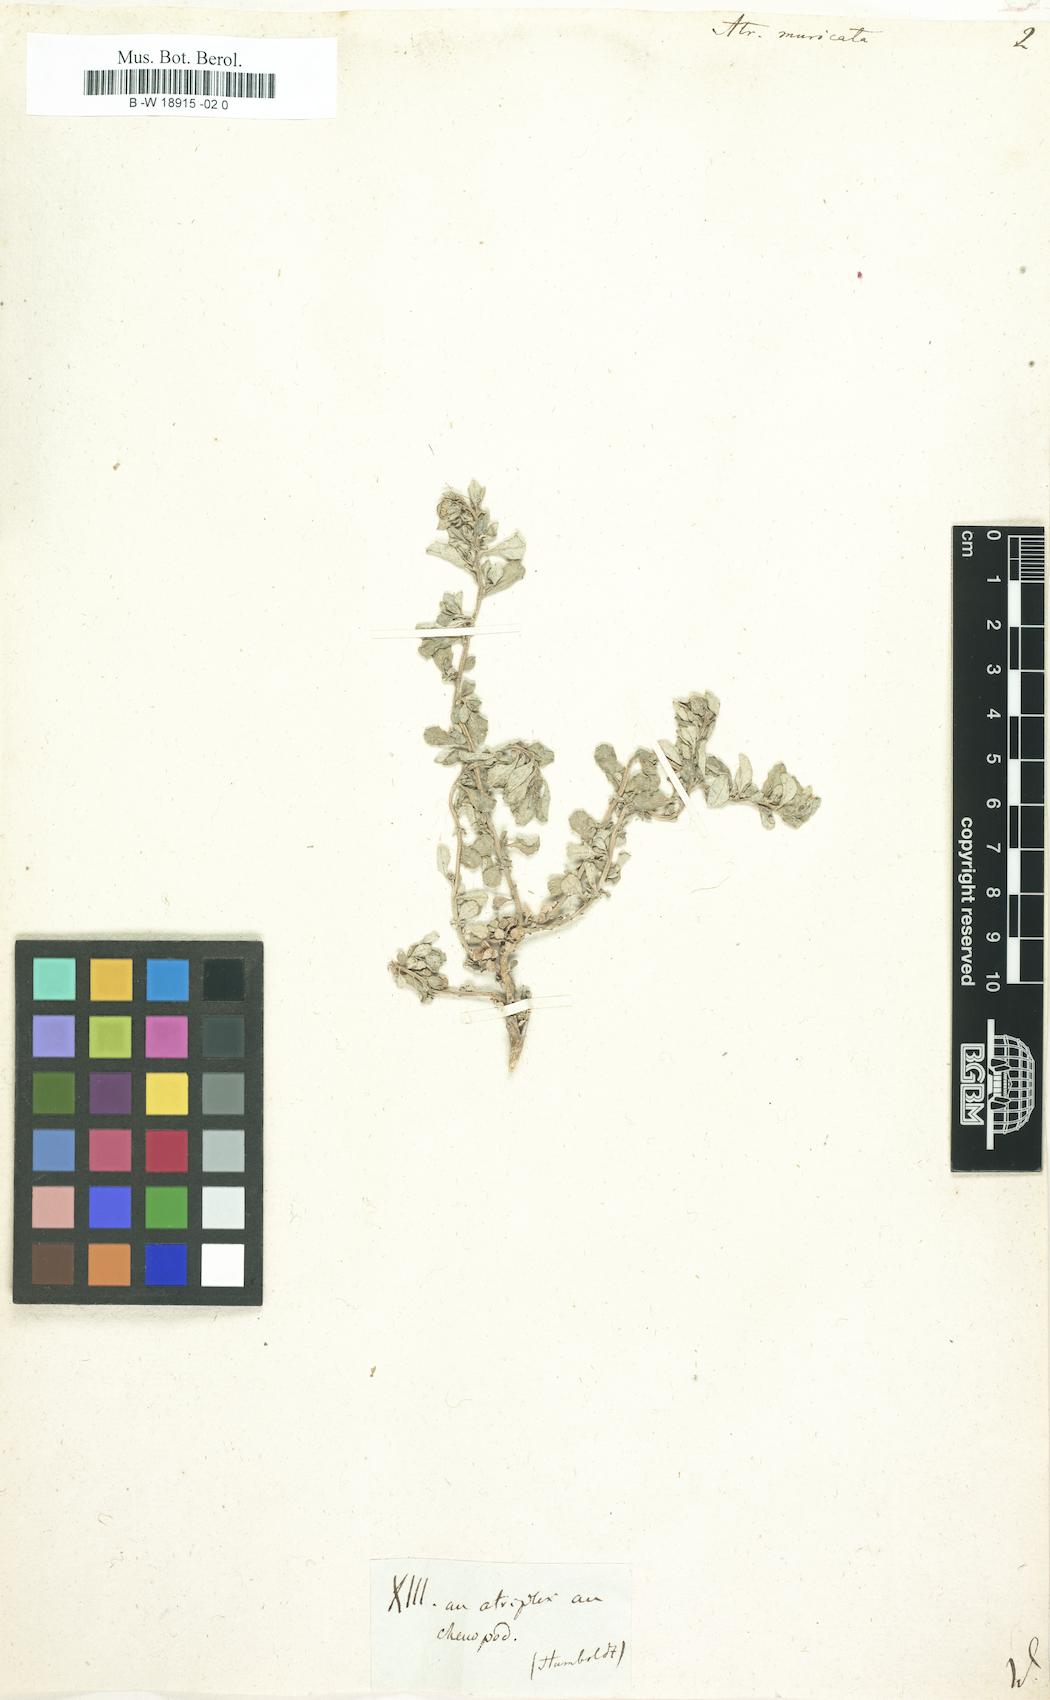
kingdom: Plantae
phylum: Tracheophyta
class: Magnoliopsida
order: Caryophyllales
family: Amaranthaceae
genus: Atriplex
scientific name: Atriplex muricata
